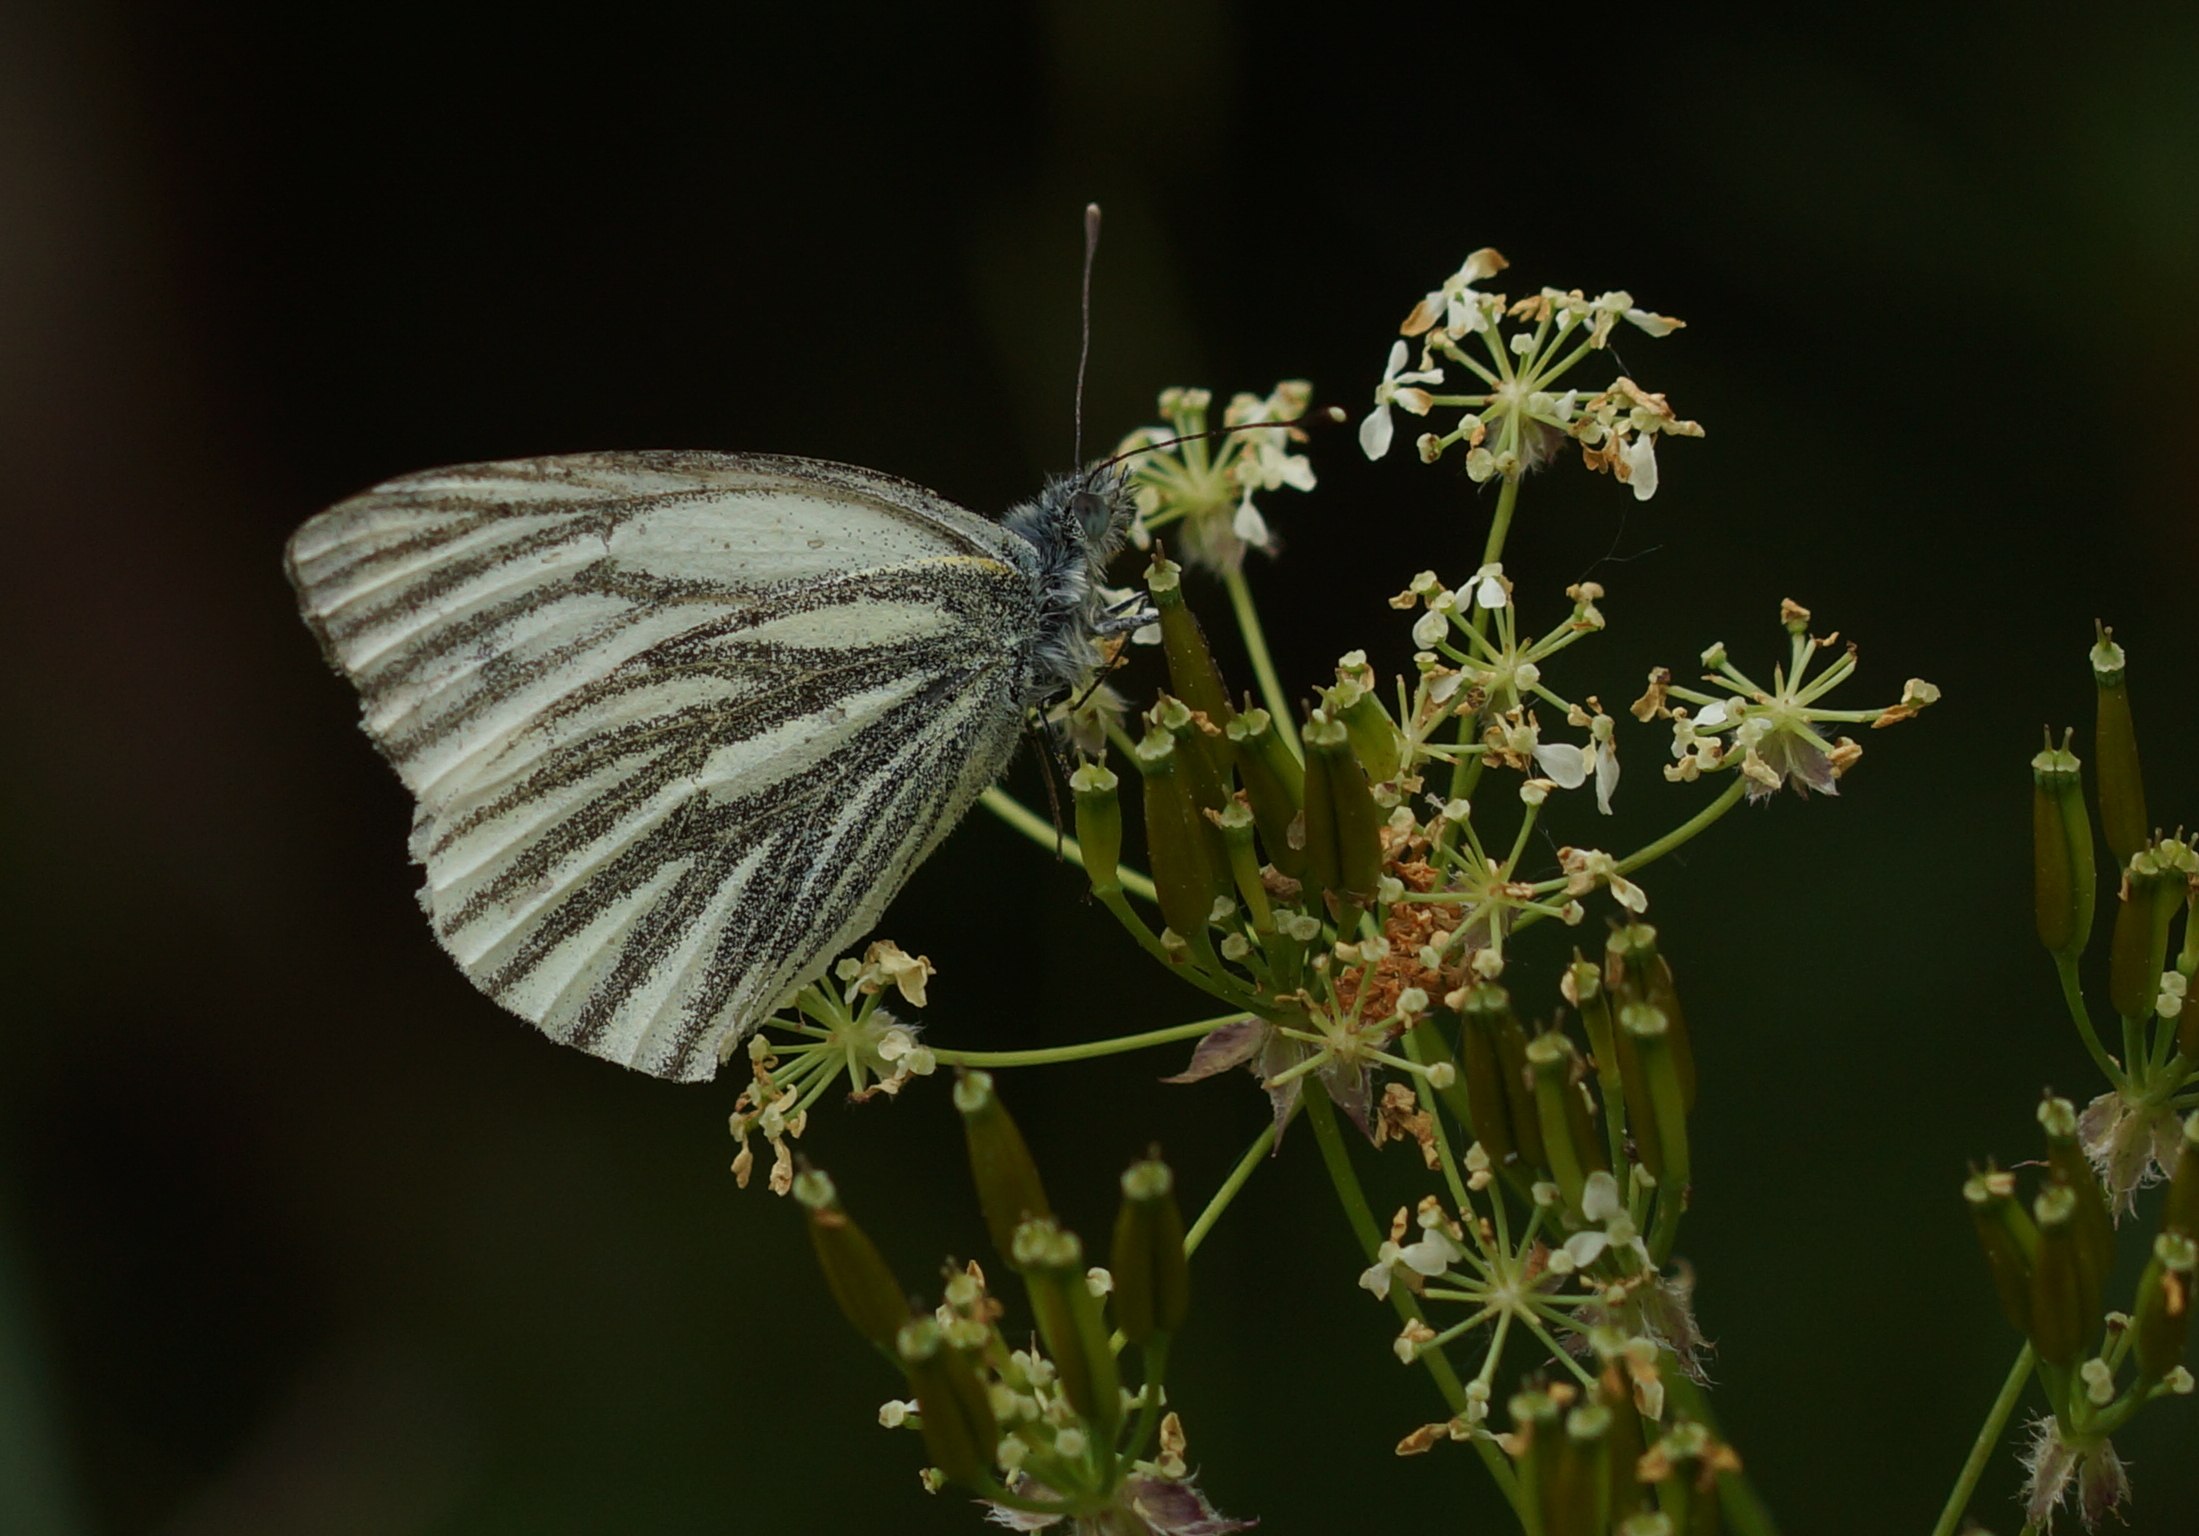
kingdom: Animalia
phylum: Arthropoda
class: Insecta
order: Lepidoptera
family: Pieridae
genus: Pieris
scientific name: Pieris napi
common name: Grønåret kålsommerfugl
